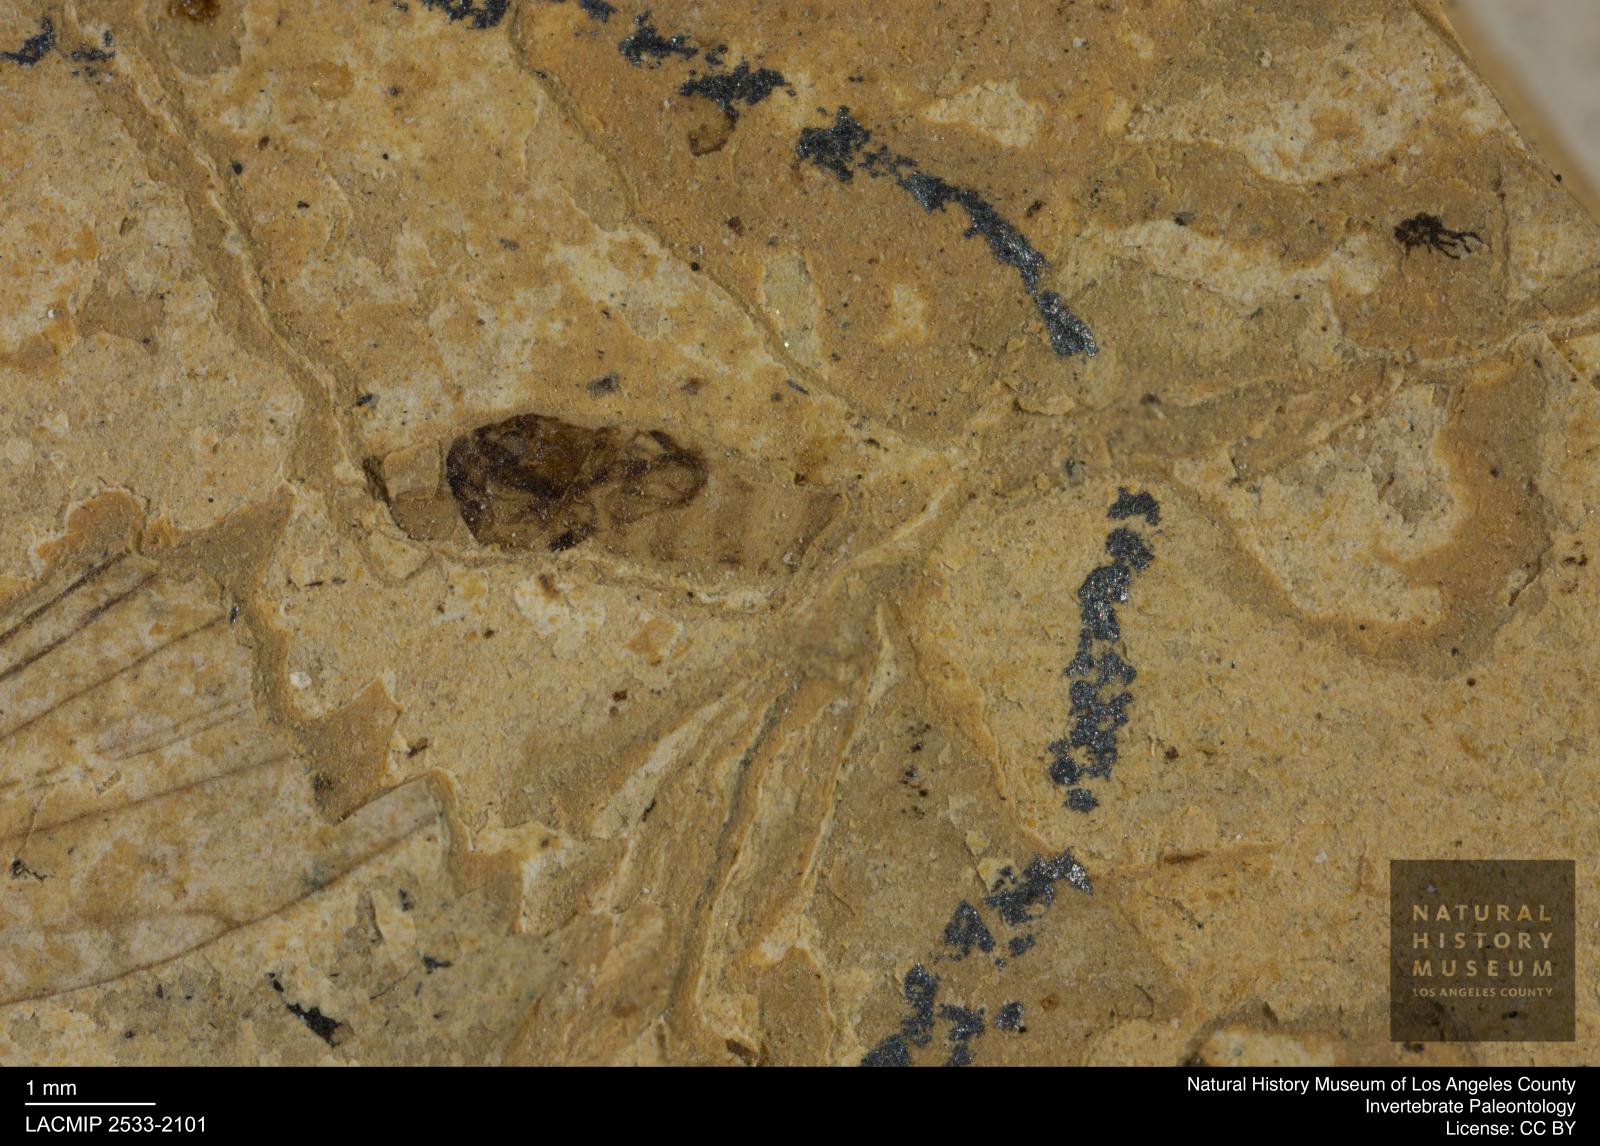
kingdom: Animalia
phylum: Arthropoda
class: Insecta
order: Diptera
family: Chloropidae
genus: Chlorops
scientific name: Chlorops anthracinus
